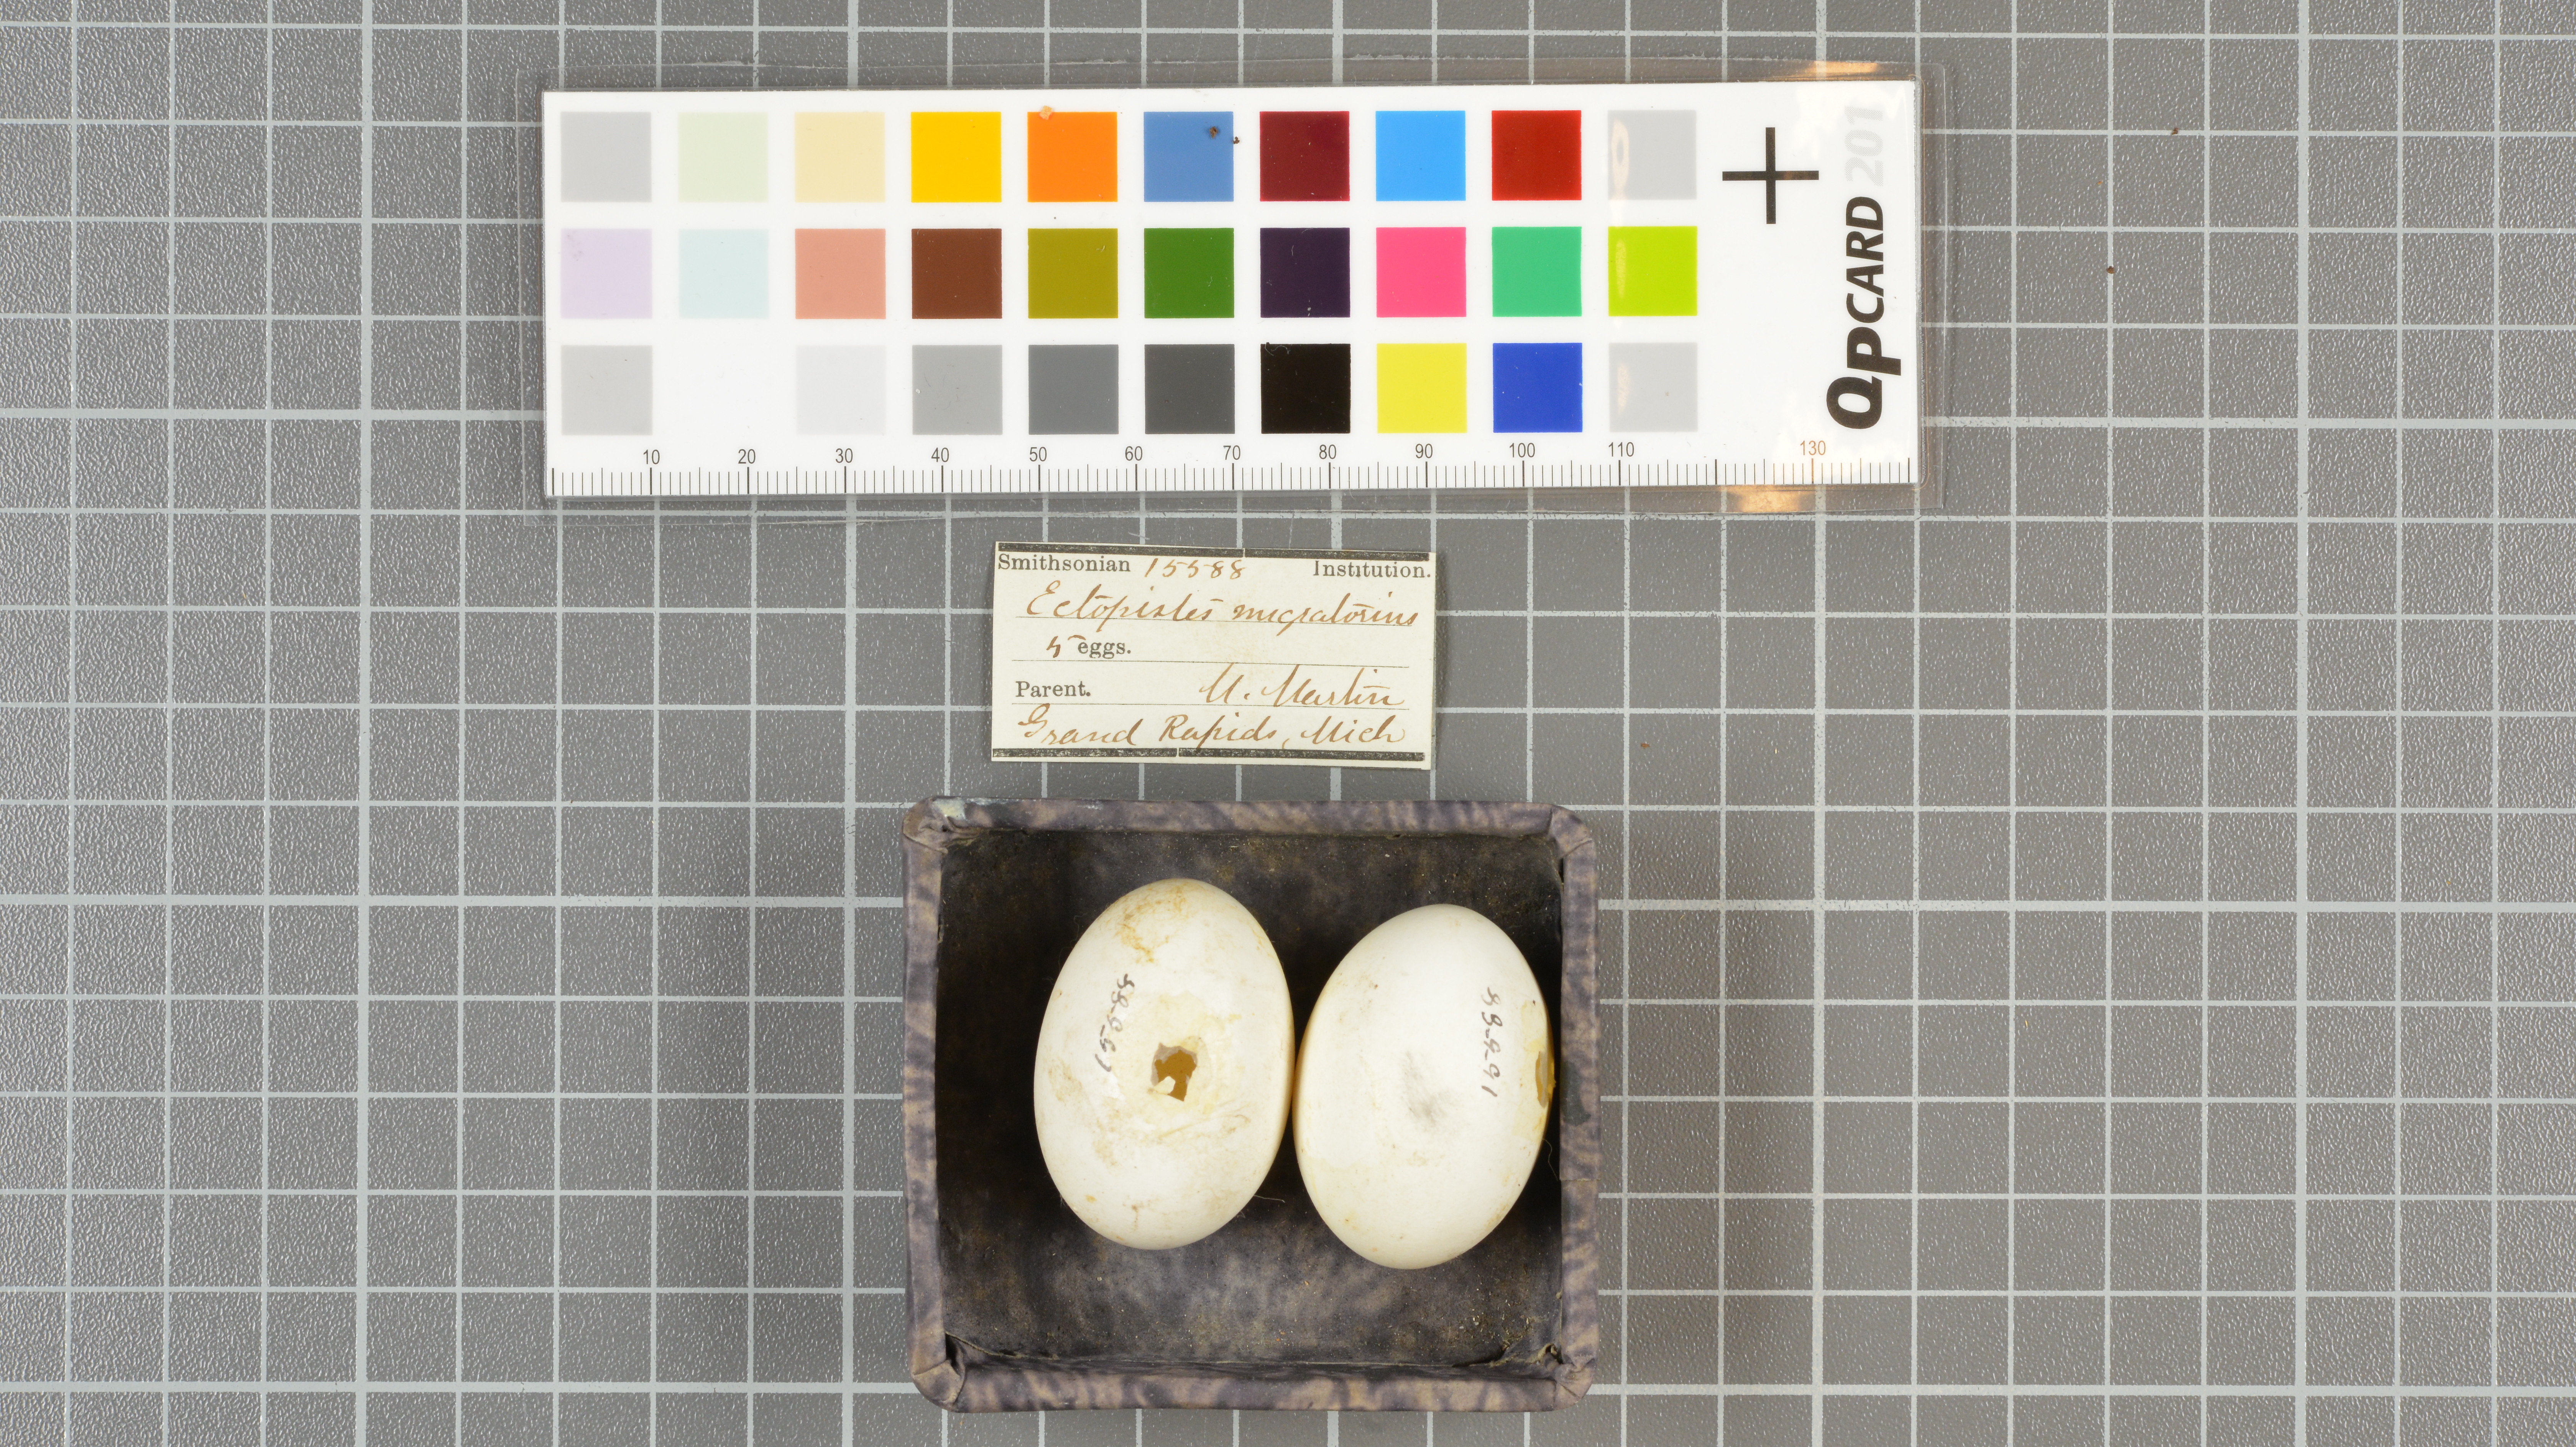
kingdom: Animalia
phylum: Chordata
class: Aves
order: Columbiformes
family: Columbidae
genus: Ectopistes
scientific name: Ectopistes migratorius
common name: Passenger pigeon
